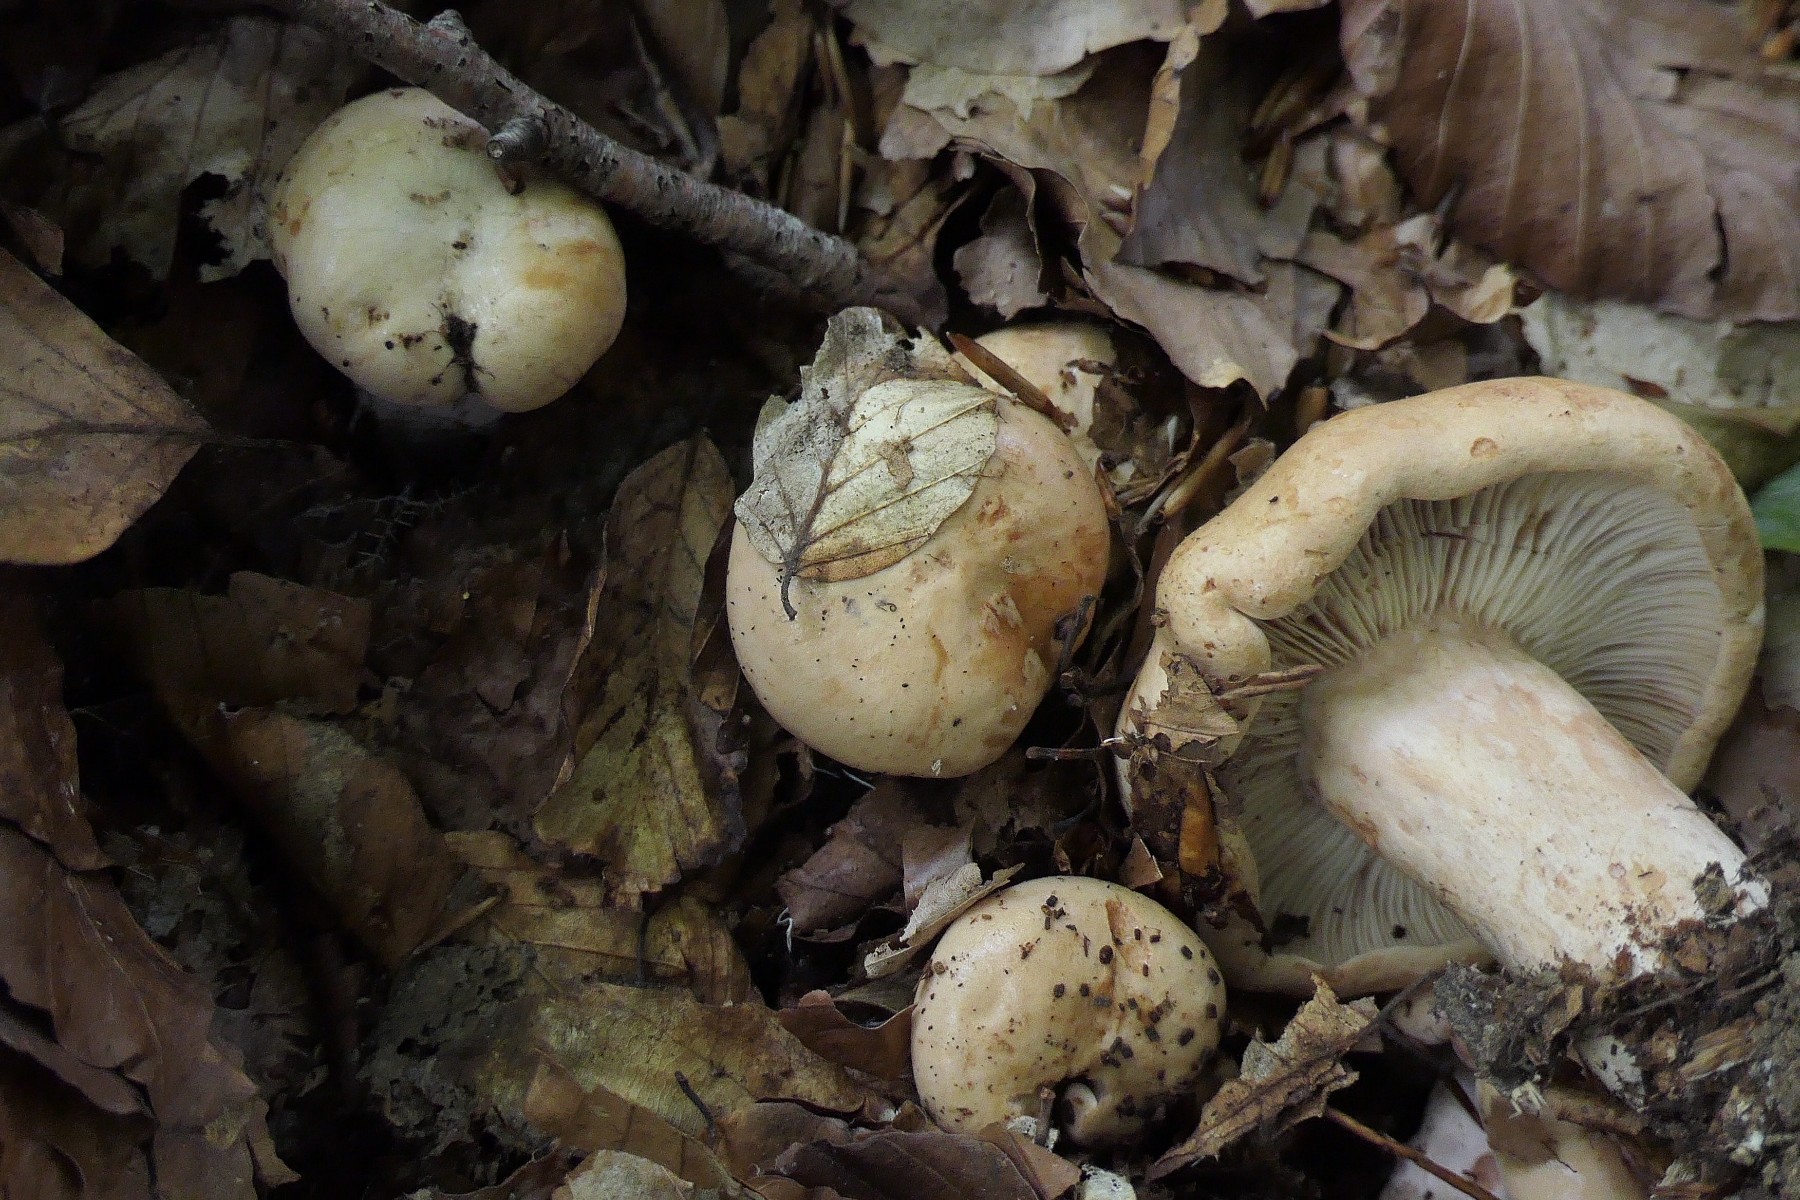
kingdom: Fungi
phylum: Basidiomycota
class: Agaricomycetes
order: Russulales
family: Russulaceae
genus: Lactarius
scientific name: Lactarius pallidus
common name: bleg mælkehat
